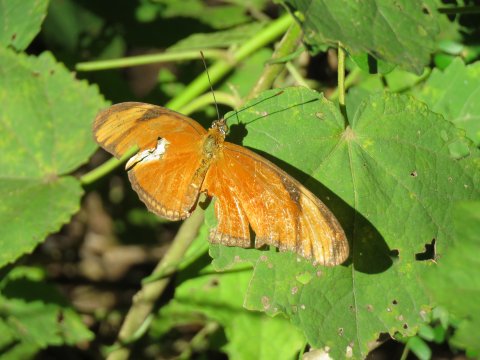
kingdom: Animalia
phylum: Arthropoda
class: Insecta
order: Lepidoptera
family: Nymphalidae
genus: Dryas
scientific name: Dryas iulia
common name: Julia
